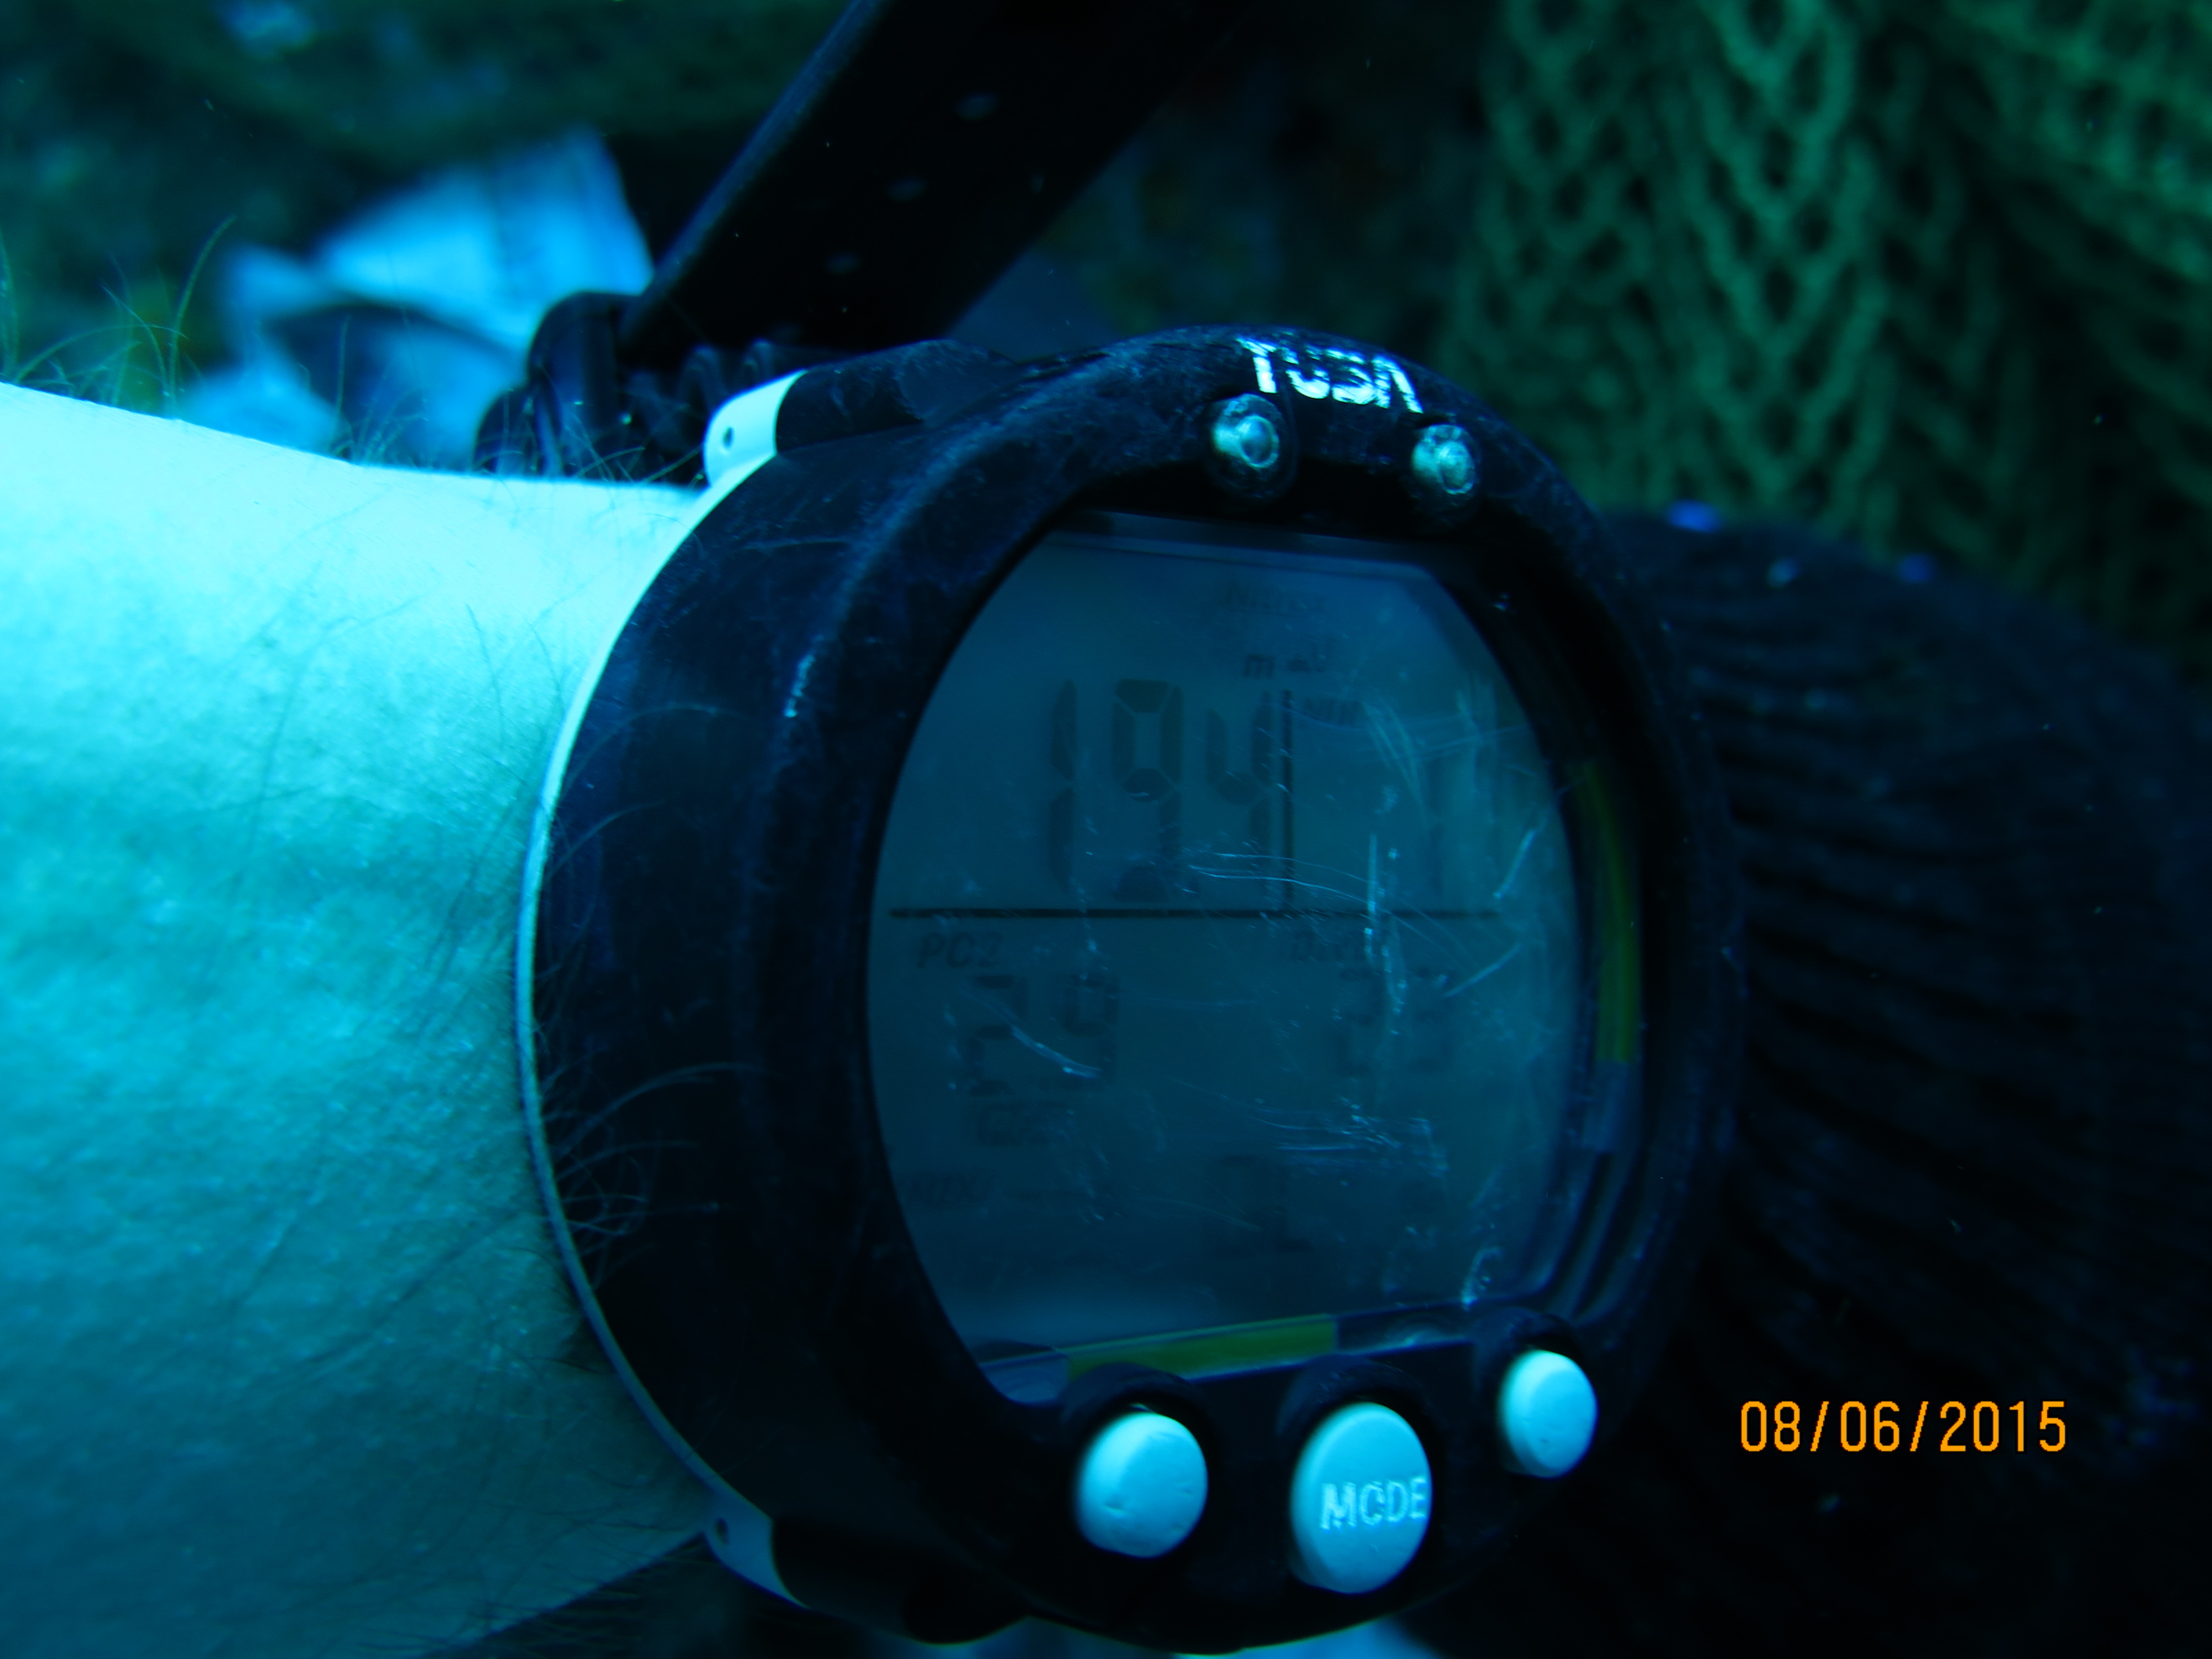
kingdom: Animalia
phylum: Cnidaria
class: Anthozoa
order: Scleractinia
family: Faviidae
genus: Pseudodiploria
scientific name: Pseudodiploria strigosa
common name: Symmetrical brain coral
